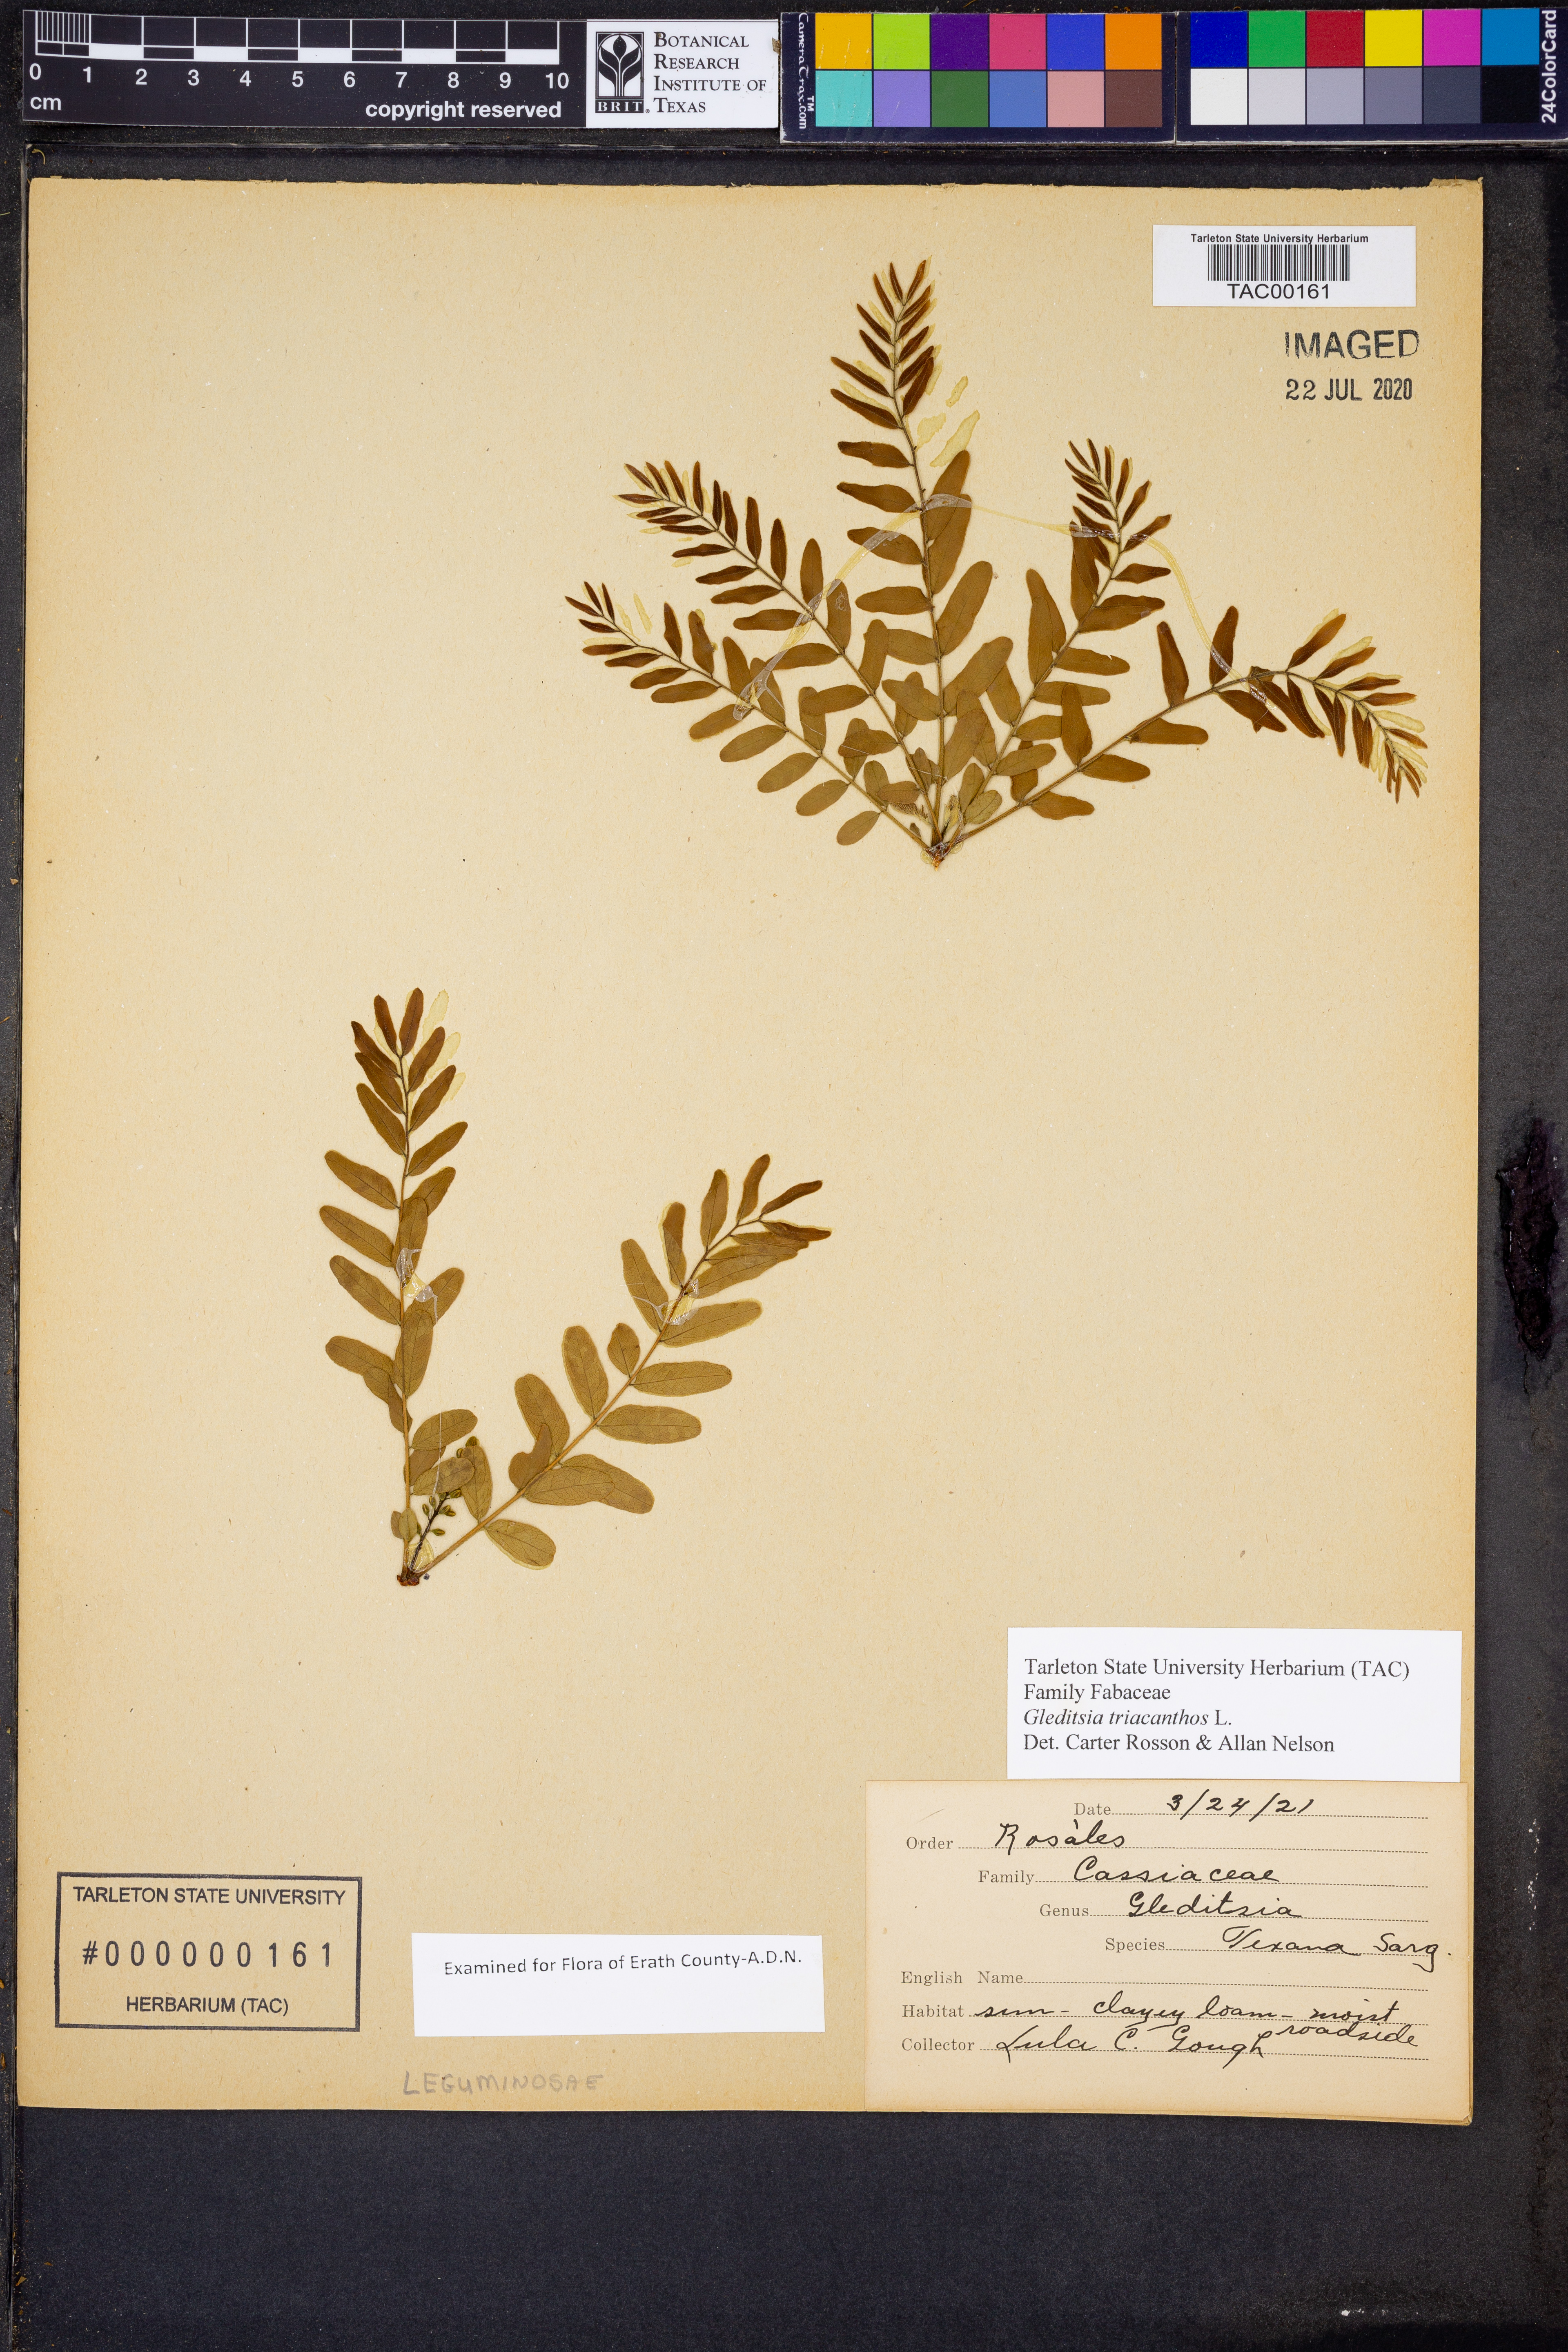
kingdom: Plantae
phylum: Tracheophyta
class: Magnoliopsida
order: Fabales
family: Fabaceae
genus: Gleditsia
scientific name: Gleditsia triacanthos
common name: Common honeylocust
